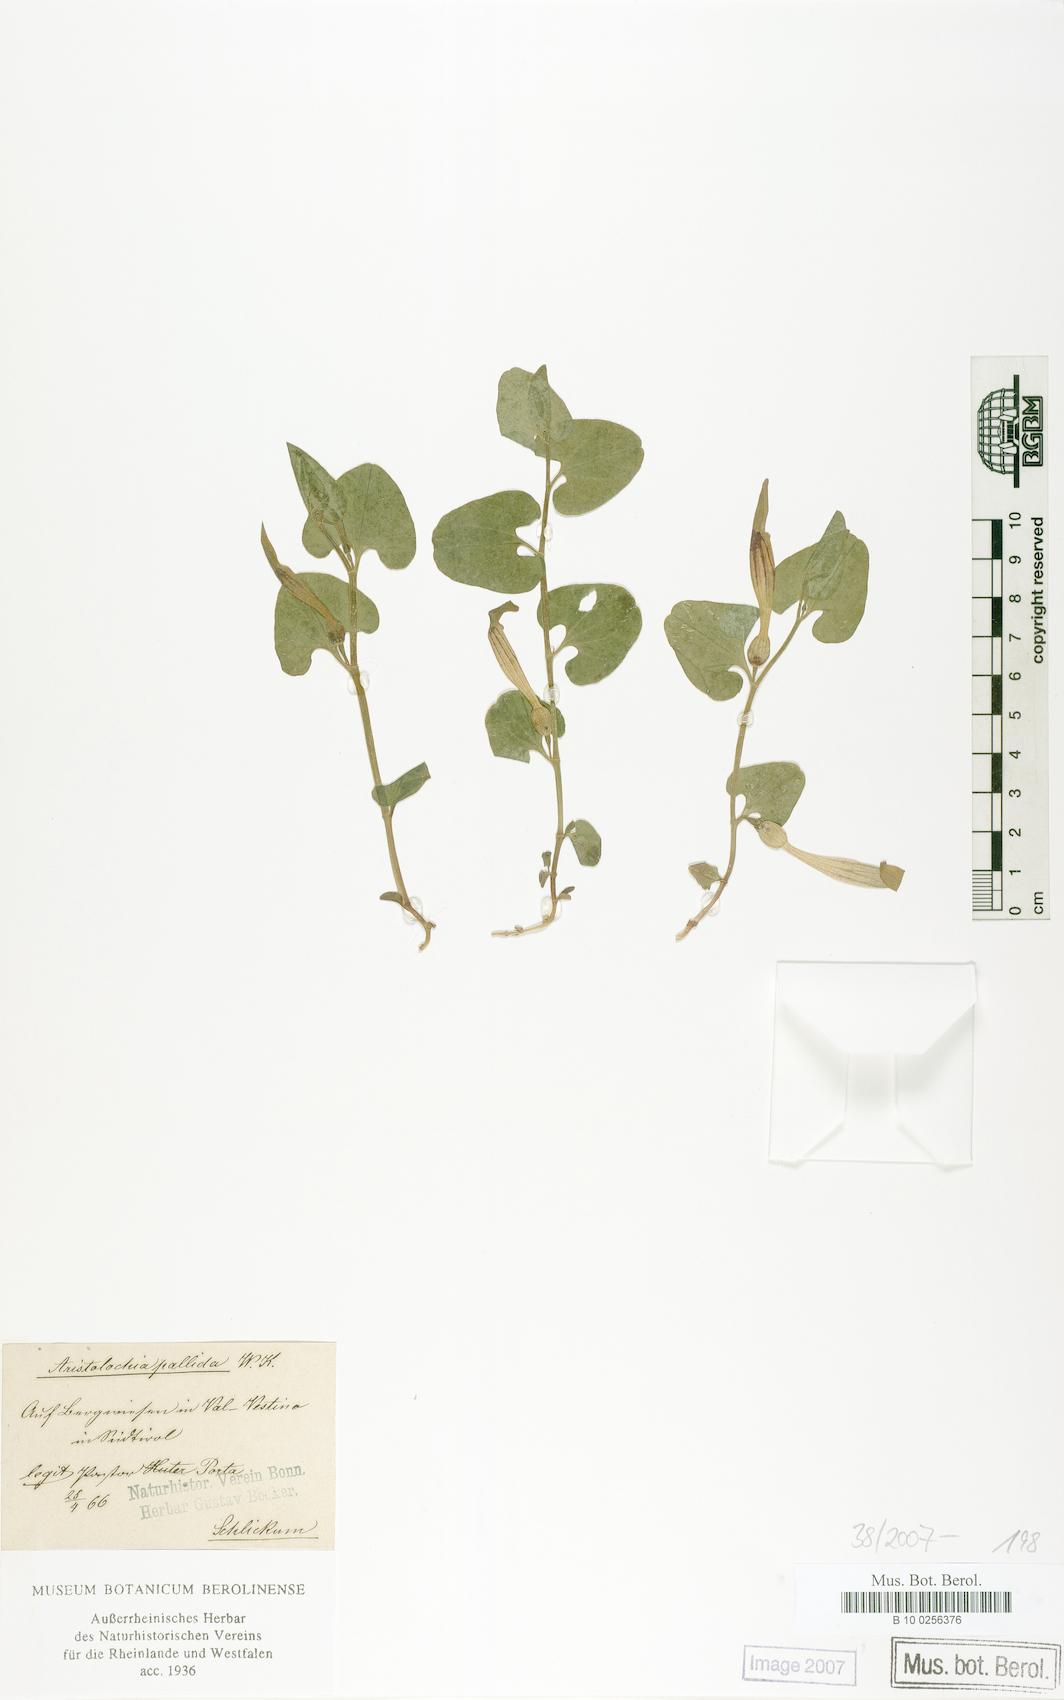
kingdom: Plantae
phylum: Tracheophyta
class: Magnoliopsida
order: Piperales
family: Aristolochiaceae
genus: Aristolochia
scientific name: Aristolochia pallida
